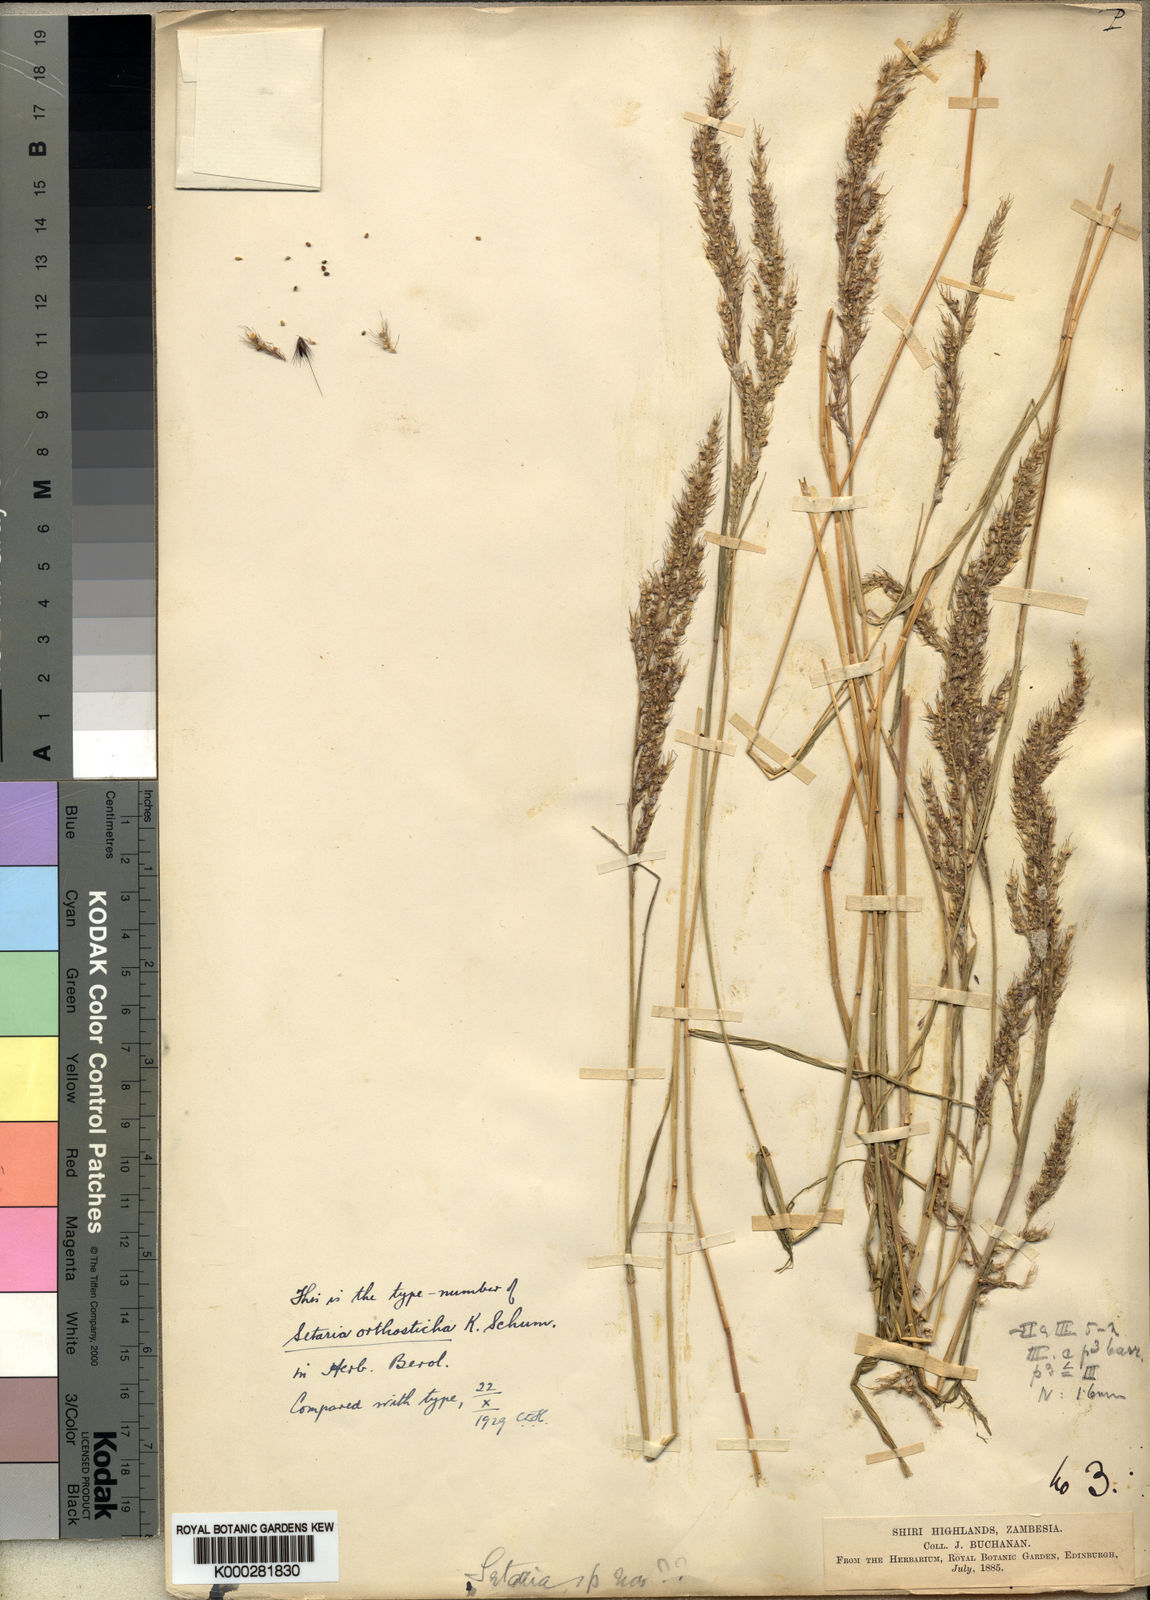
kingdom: Plantae
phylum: Tracheophyta
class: Liliopsida
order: Poales
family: Poaceae
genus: Setaria
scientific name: Setaria orthosticha
